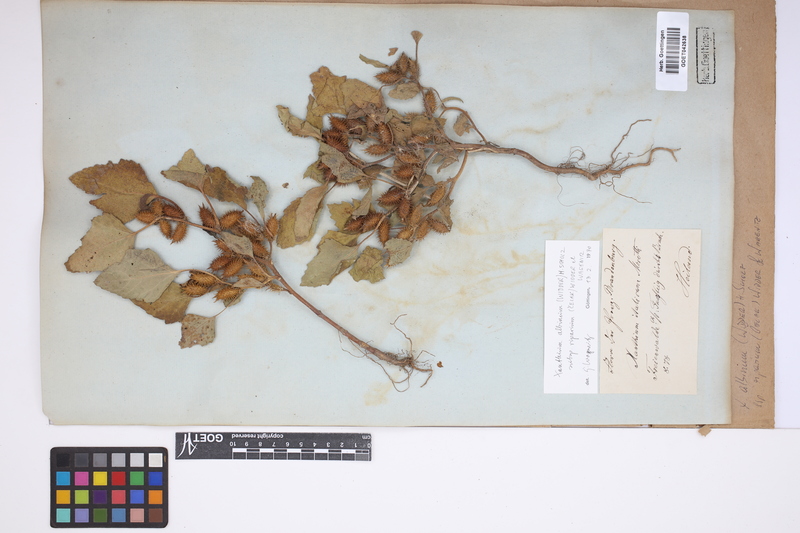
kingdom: Plantae
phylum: Tracheophyta
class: Magnoliopsida
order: Asterales
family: Asteraceae
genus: Xanthium
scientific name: Xanthium orientale
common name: Californian burr
